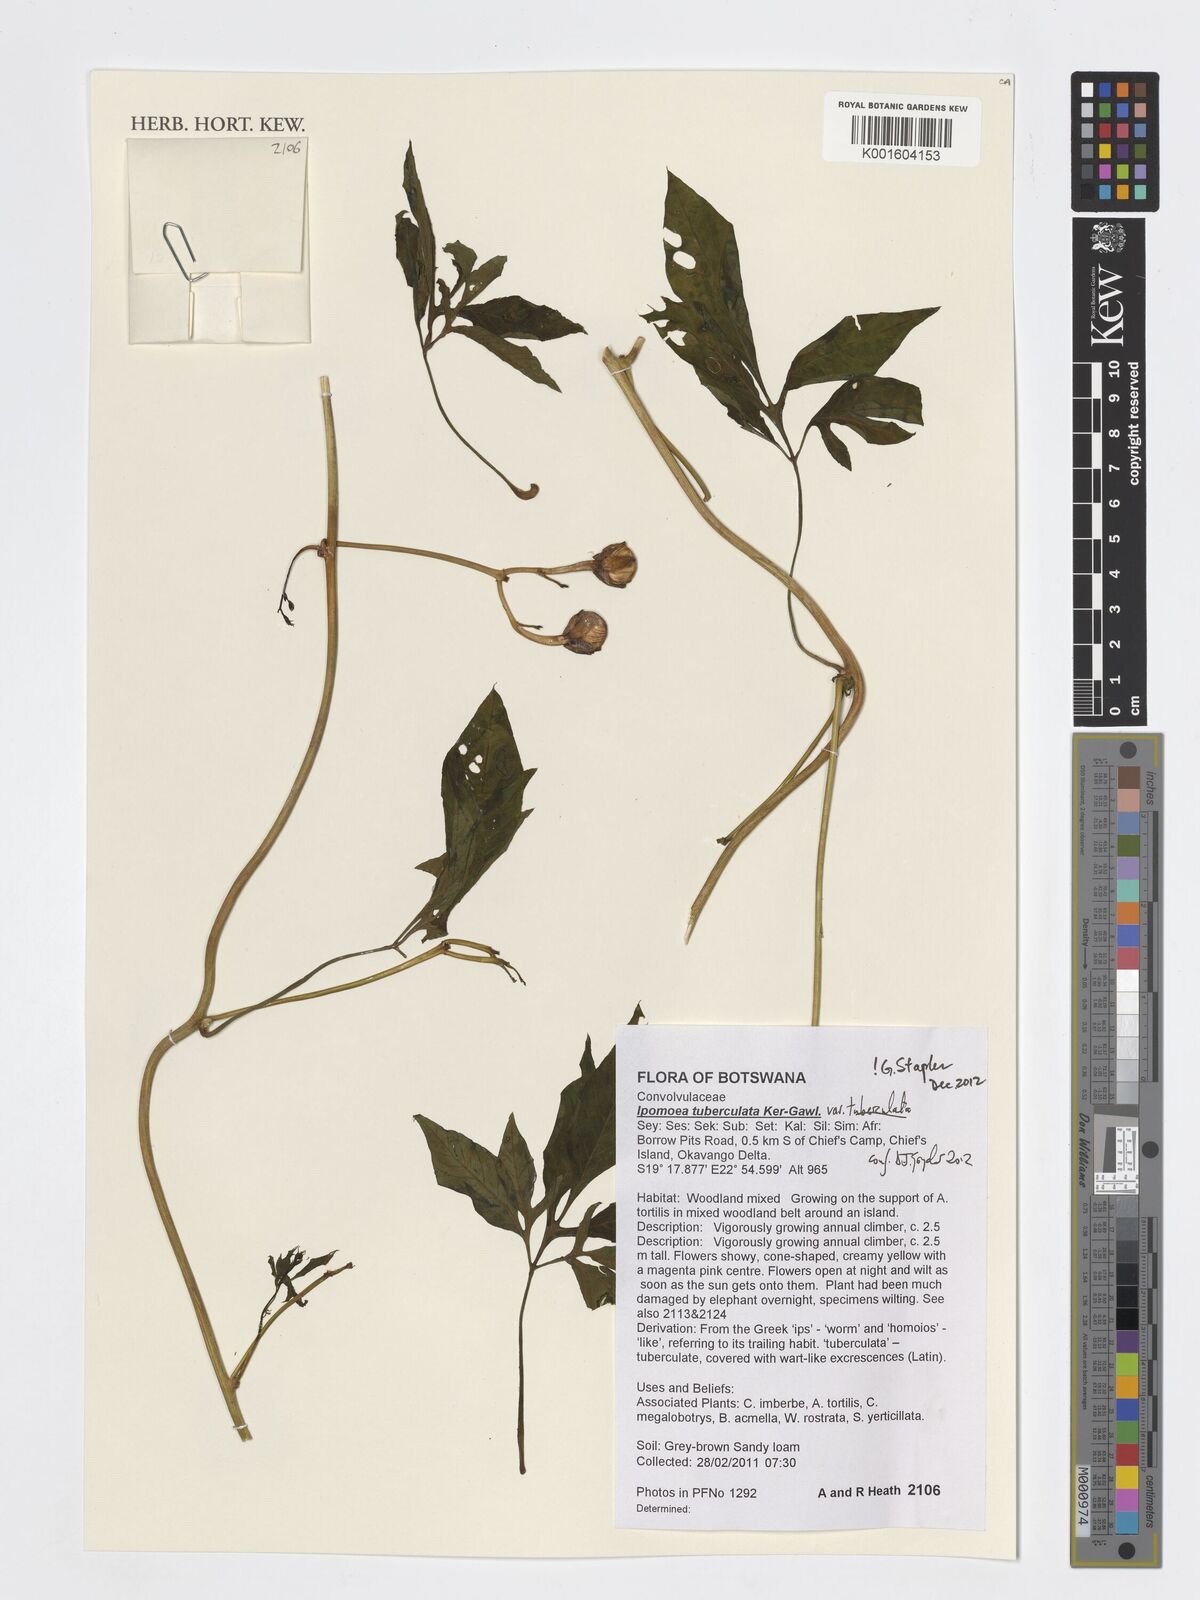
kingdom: Plantae
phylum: Tracheophyta
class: Magnoliopsida
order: Solanales
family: Convolvulaceae
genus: Ipomoea
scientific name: Ipomoea tuberculata
